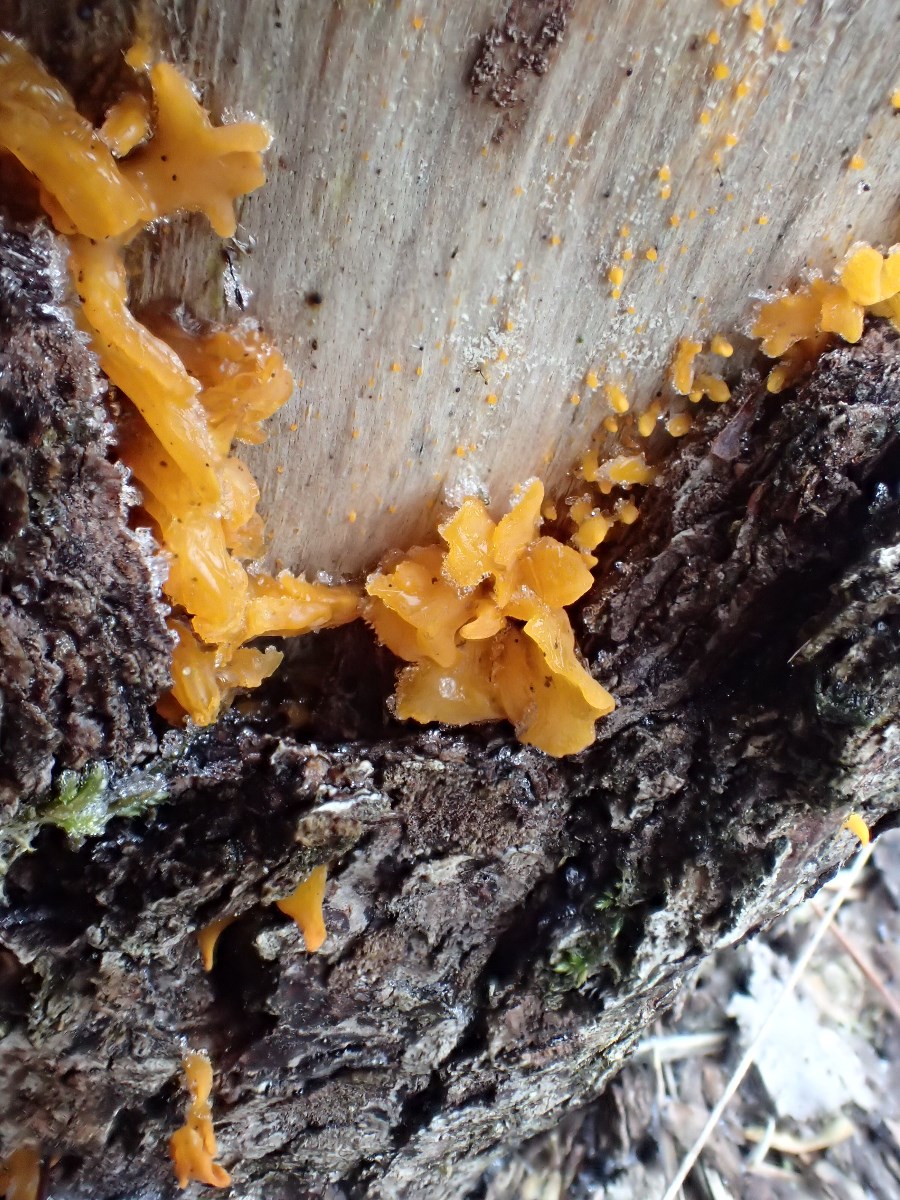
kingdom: Fungi
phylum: Basidiomycota
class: Dacrymycetes
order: Dacrymycetales
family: Dacrymycetaceae
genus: Calocera
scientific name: Calocera furcata
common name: fyrre-guldgaffel
